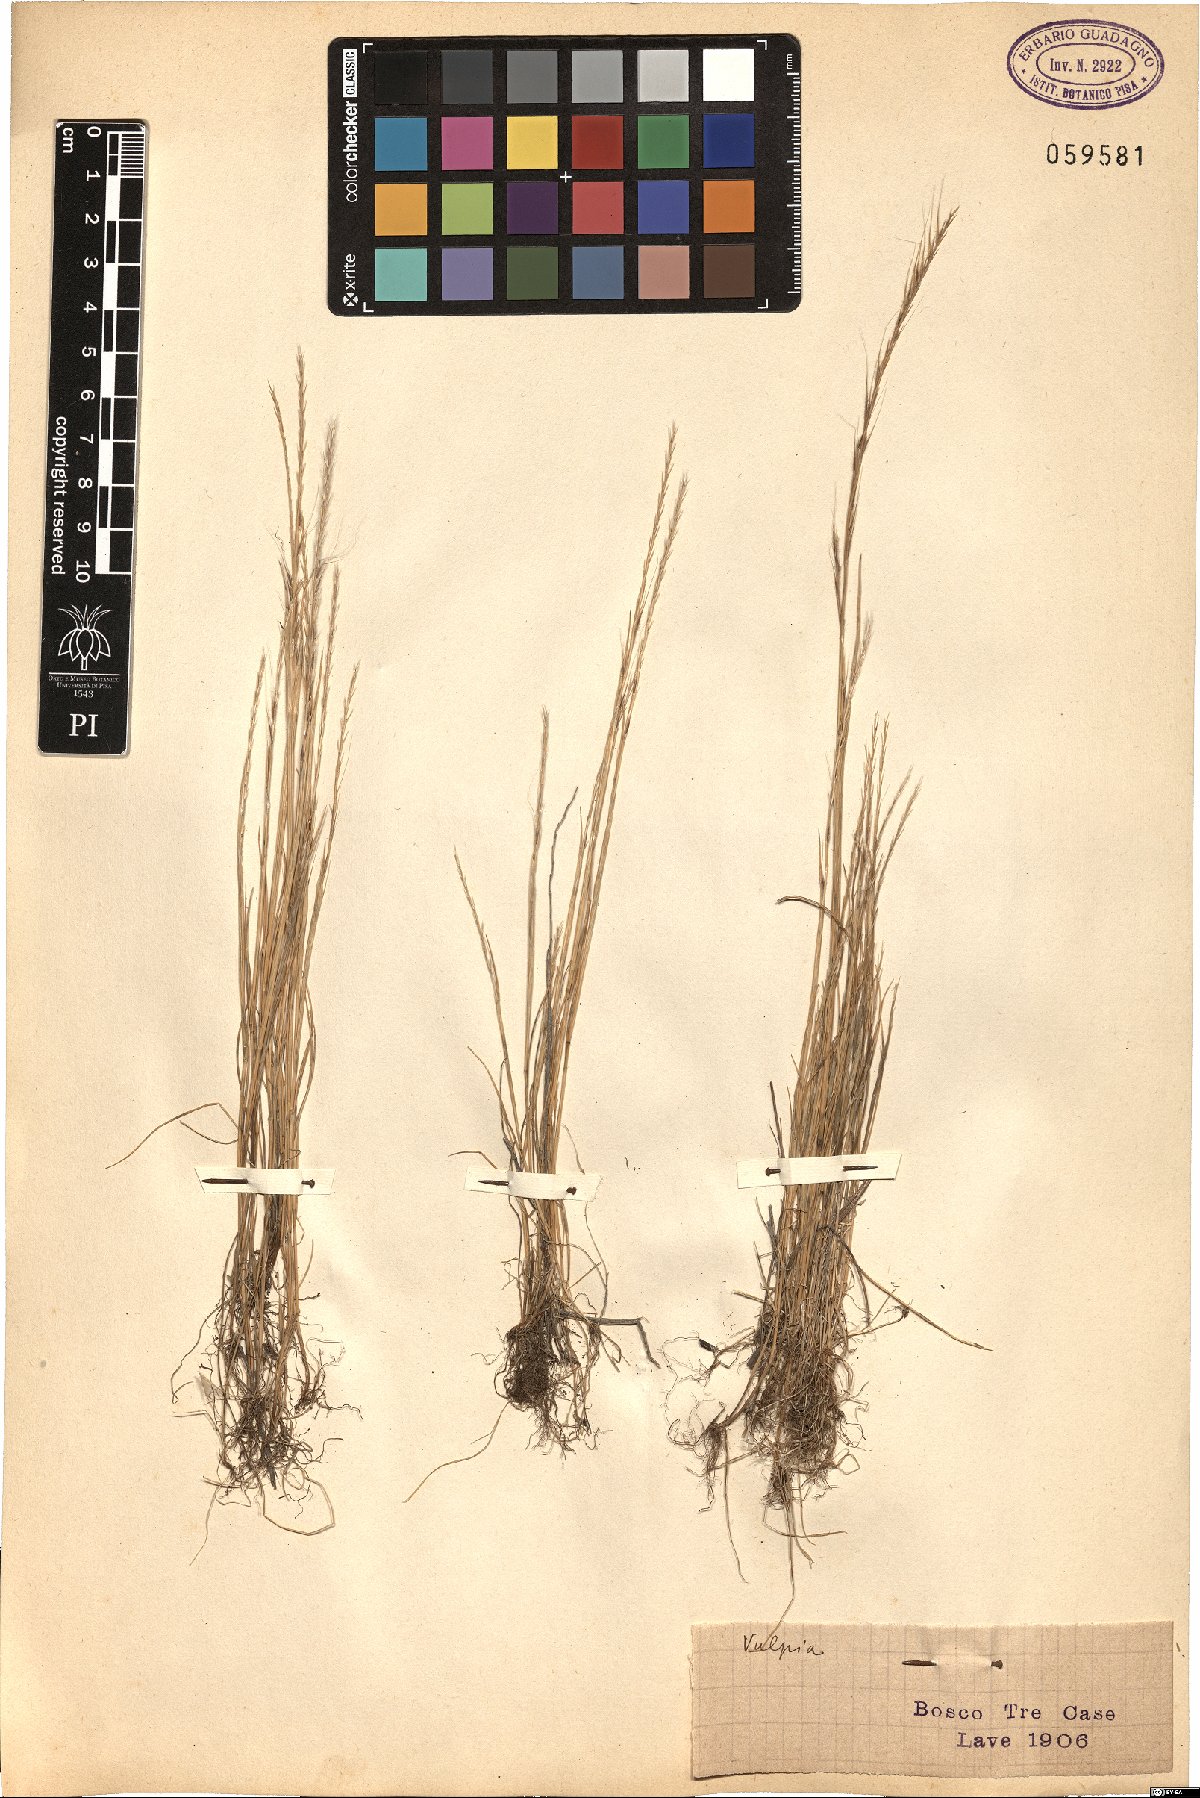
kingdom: Plantae
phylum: Tracheophyta
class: Liliopsida
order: Poales
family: Poaceae
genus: Festuca
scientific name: Festuca
